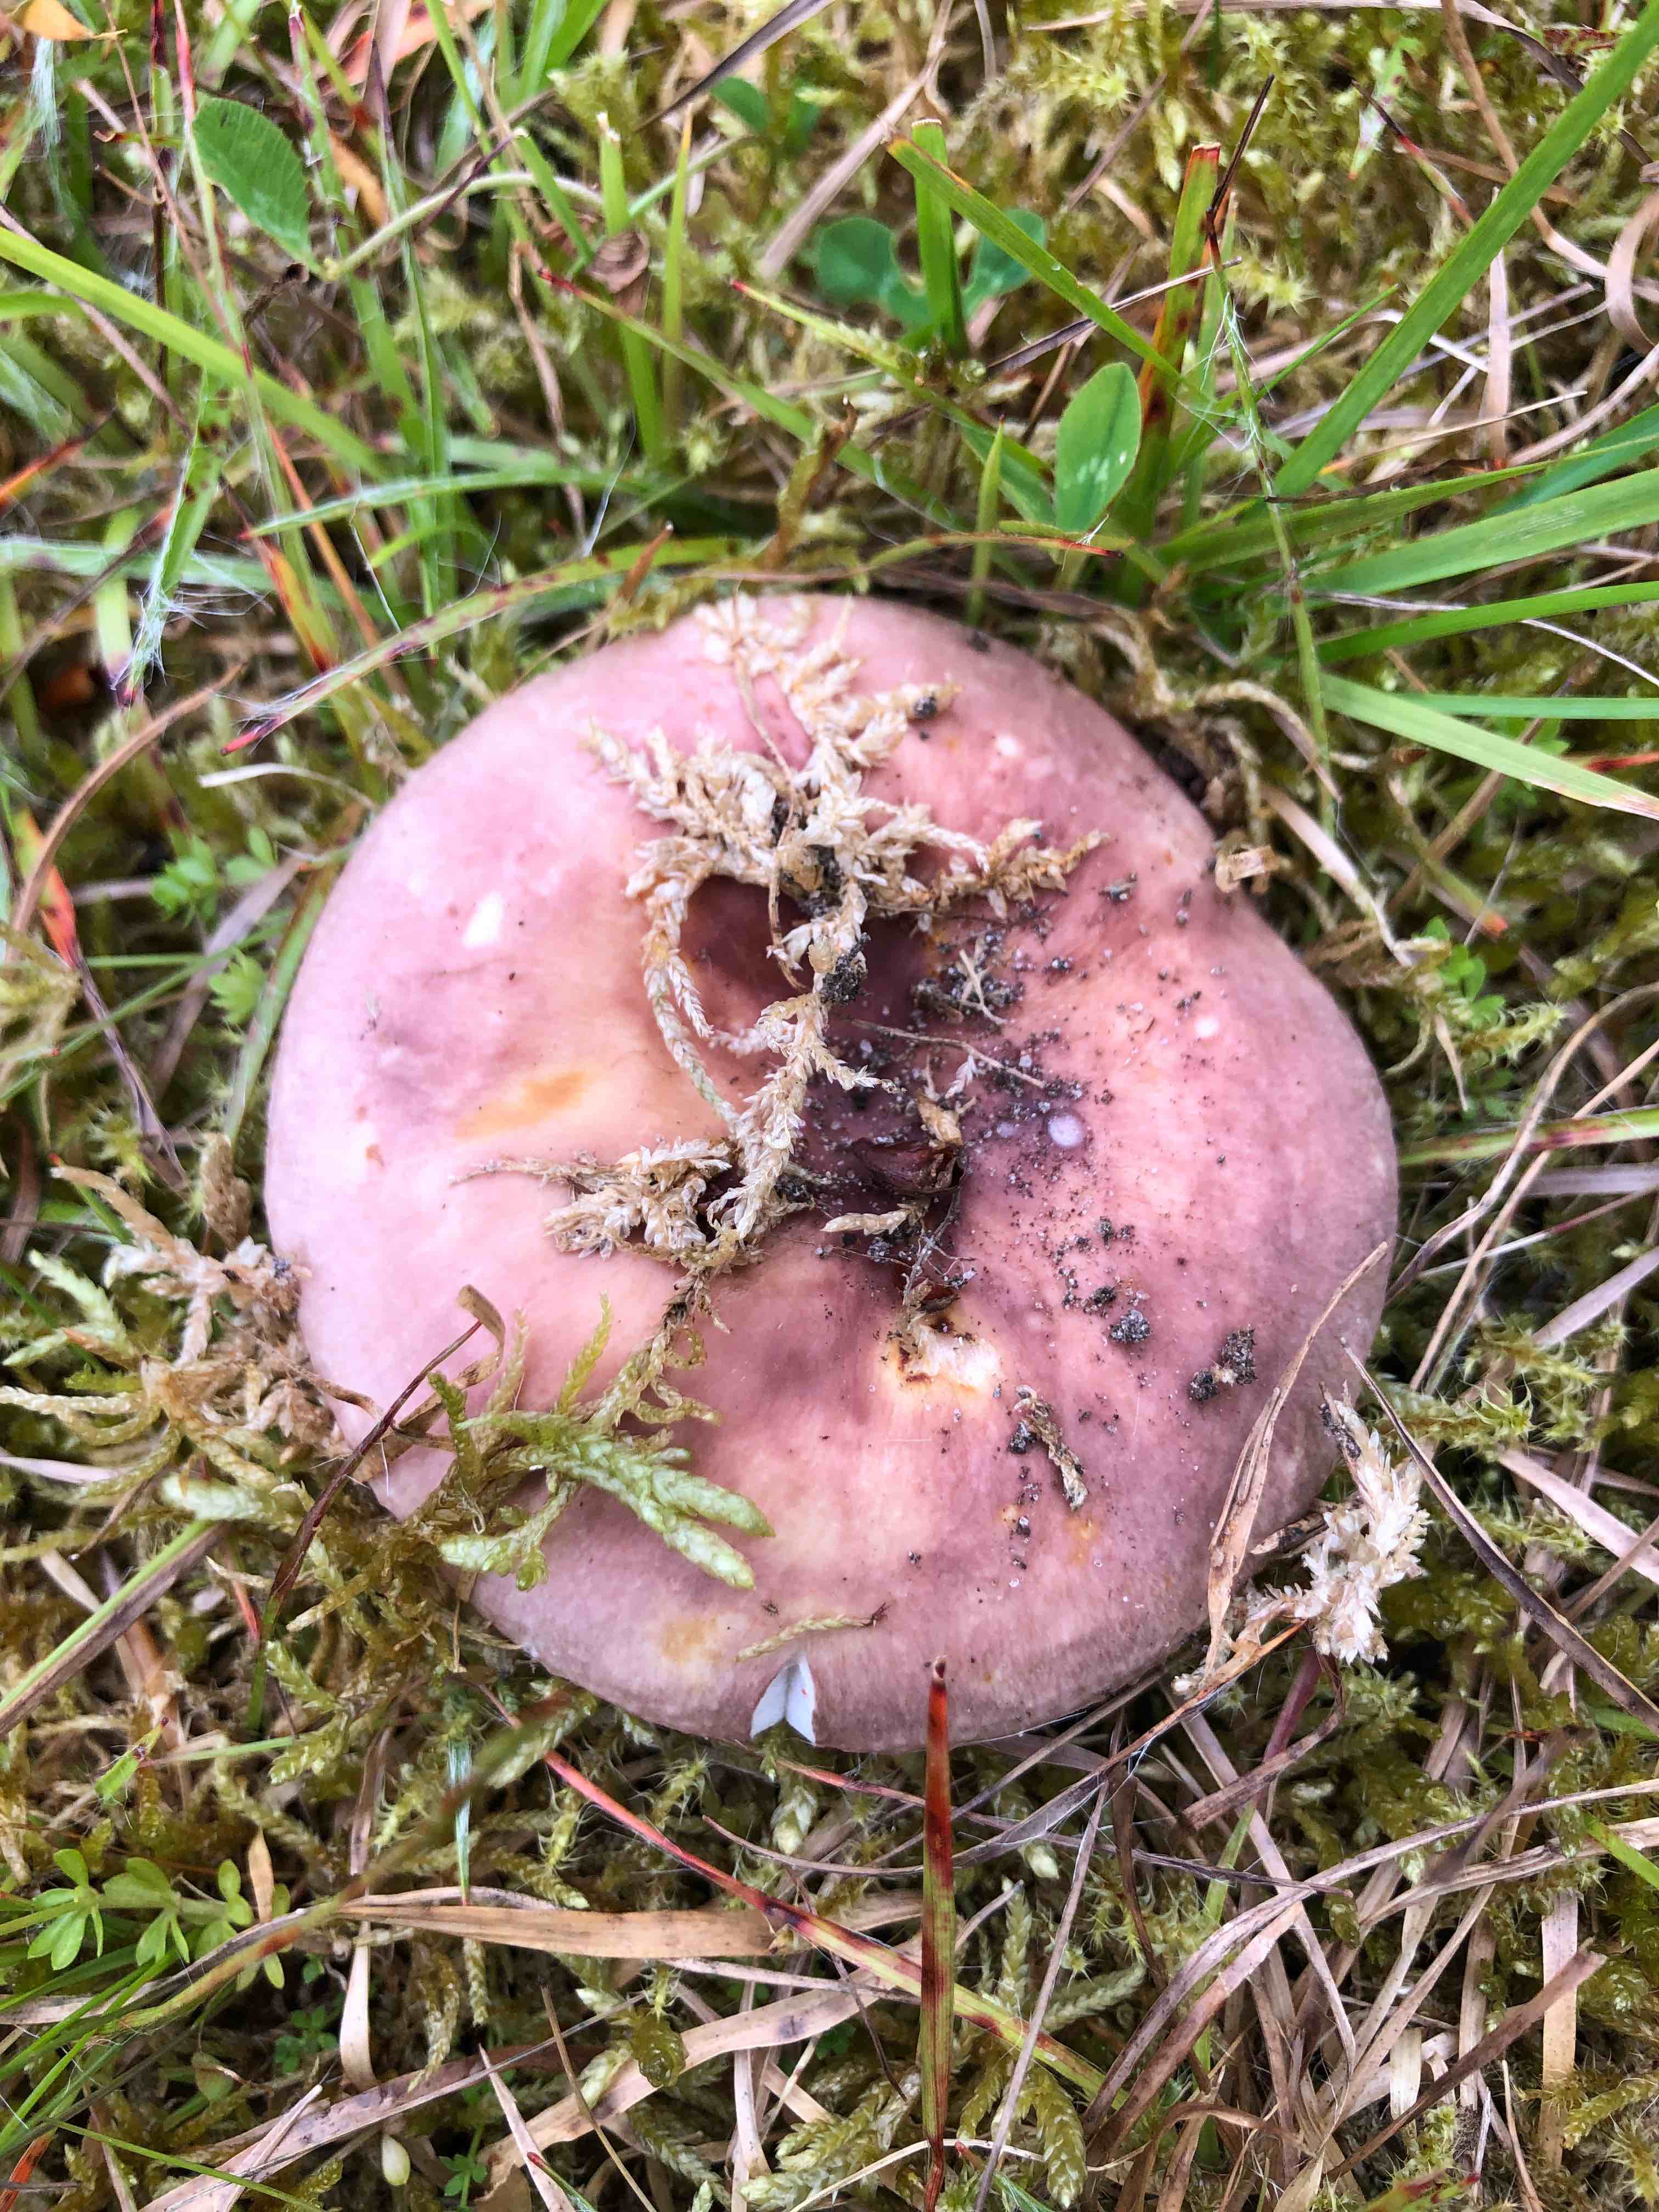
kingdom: Fungi
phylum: Basidiomycota
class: Agaricomycetes
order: Russulales
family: Russulaceae
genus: Russula
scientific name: Russula vesca
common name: spiselig skørhat
